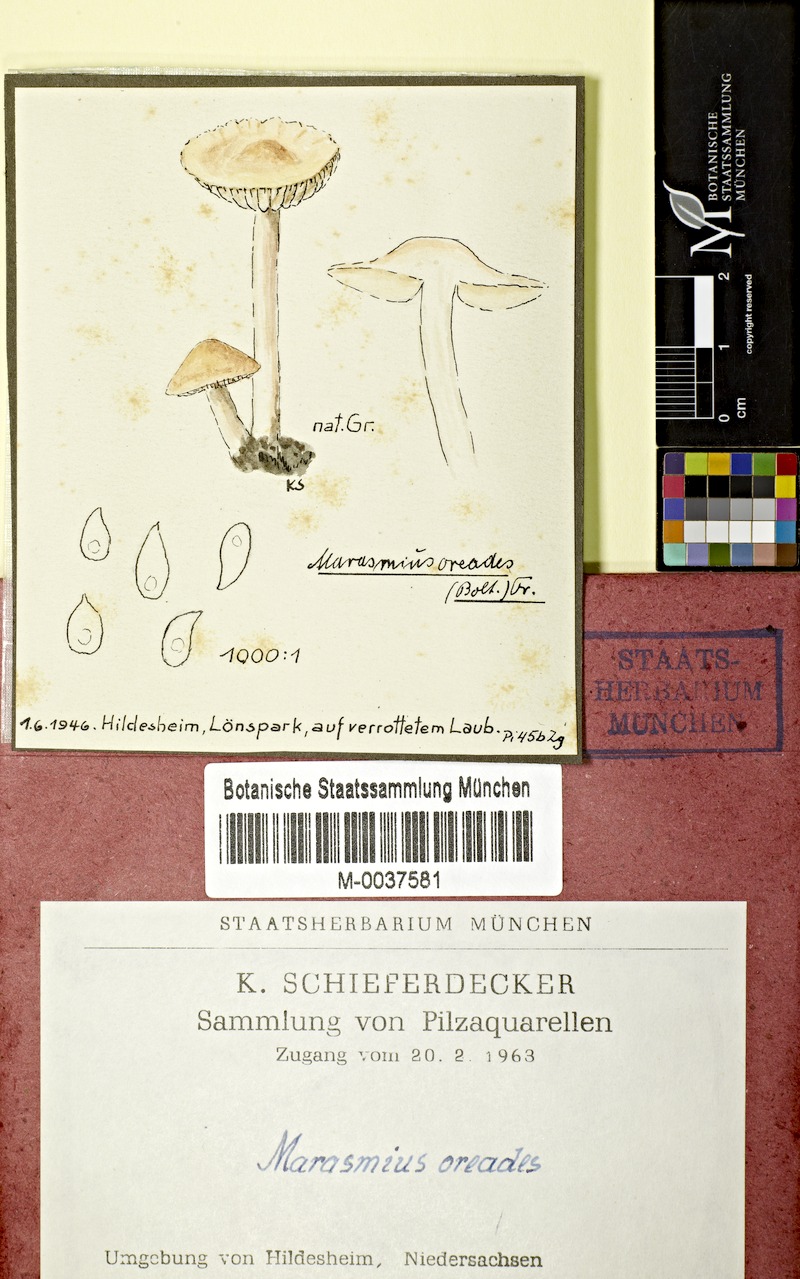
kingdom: Fungi
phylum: Basidiomycota
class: Agaricomycetes
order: Agaricales
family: Marasmiaceae
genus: Marasmius
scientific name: Marasmius oreades
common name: Fairy ring champignon
